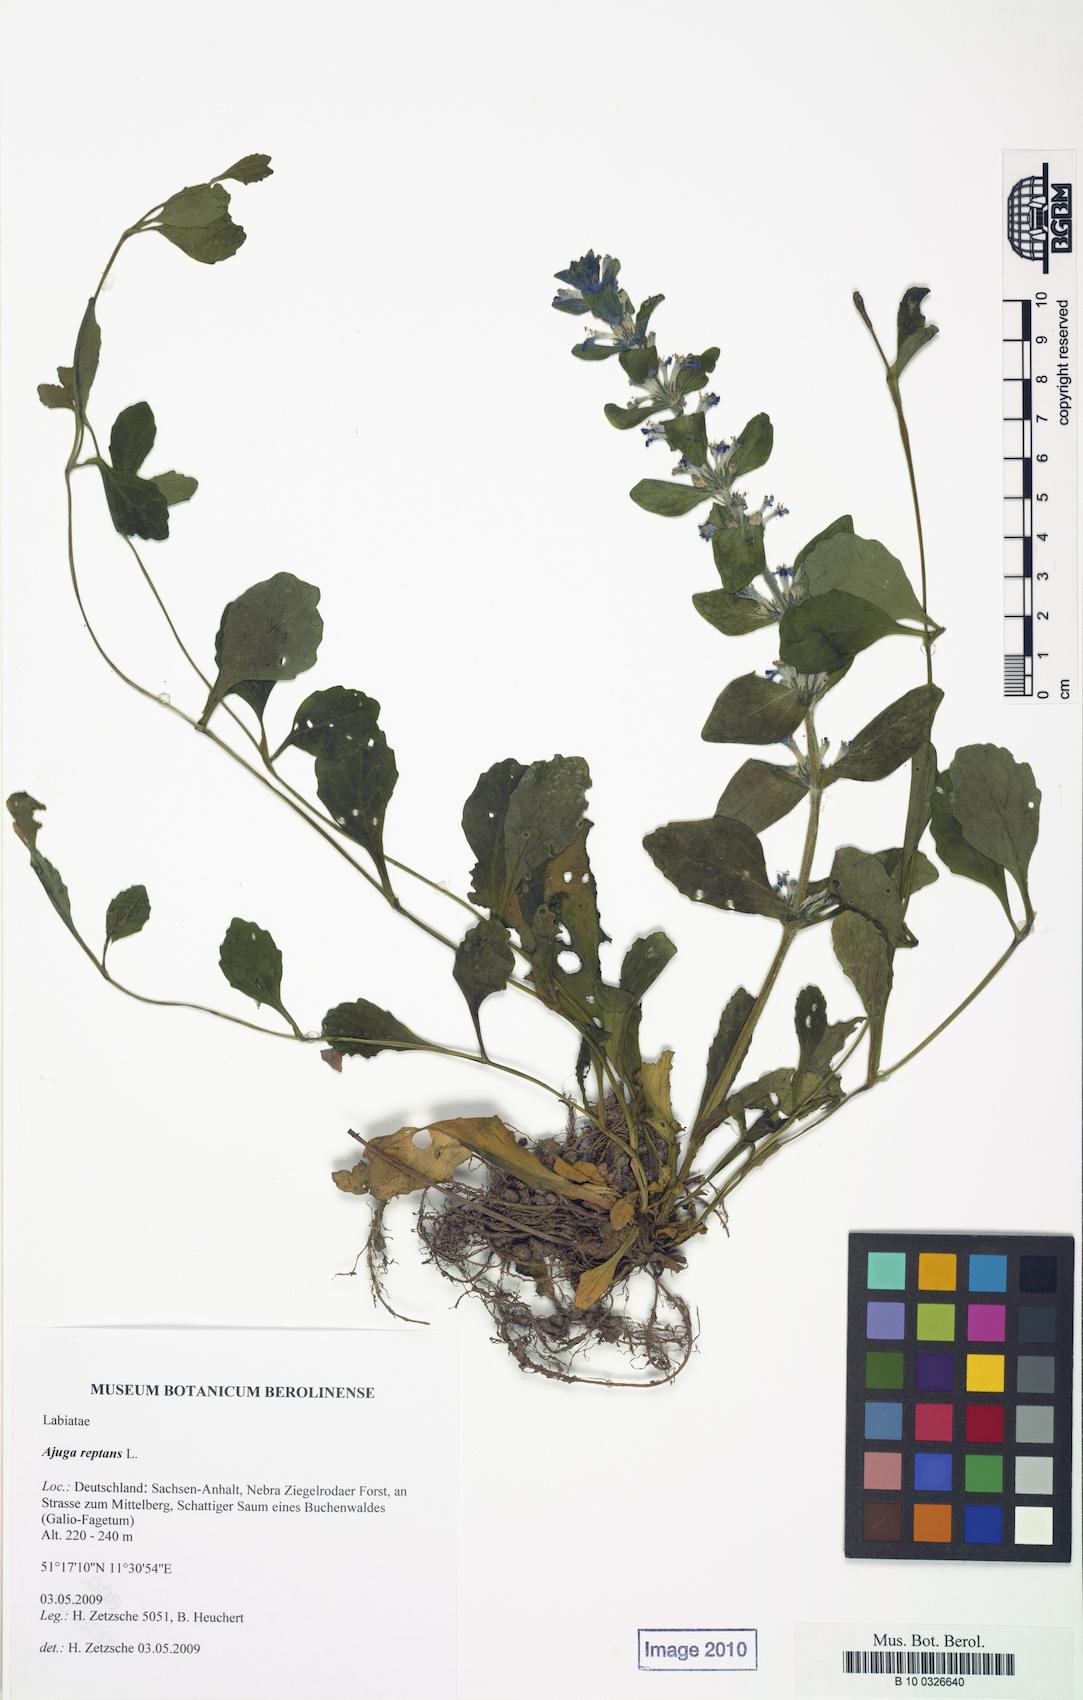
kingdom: Plantae
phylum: Tracheophyta
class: Magnoliopsida
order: Lamiales
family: Lamiaceae
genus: Ajuga
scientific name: Ajuga reptans
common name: Bugle
